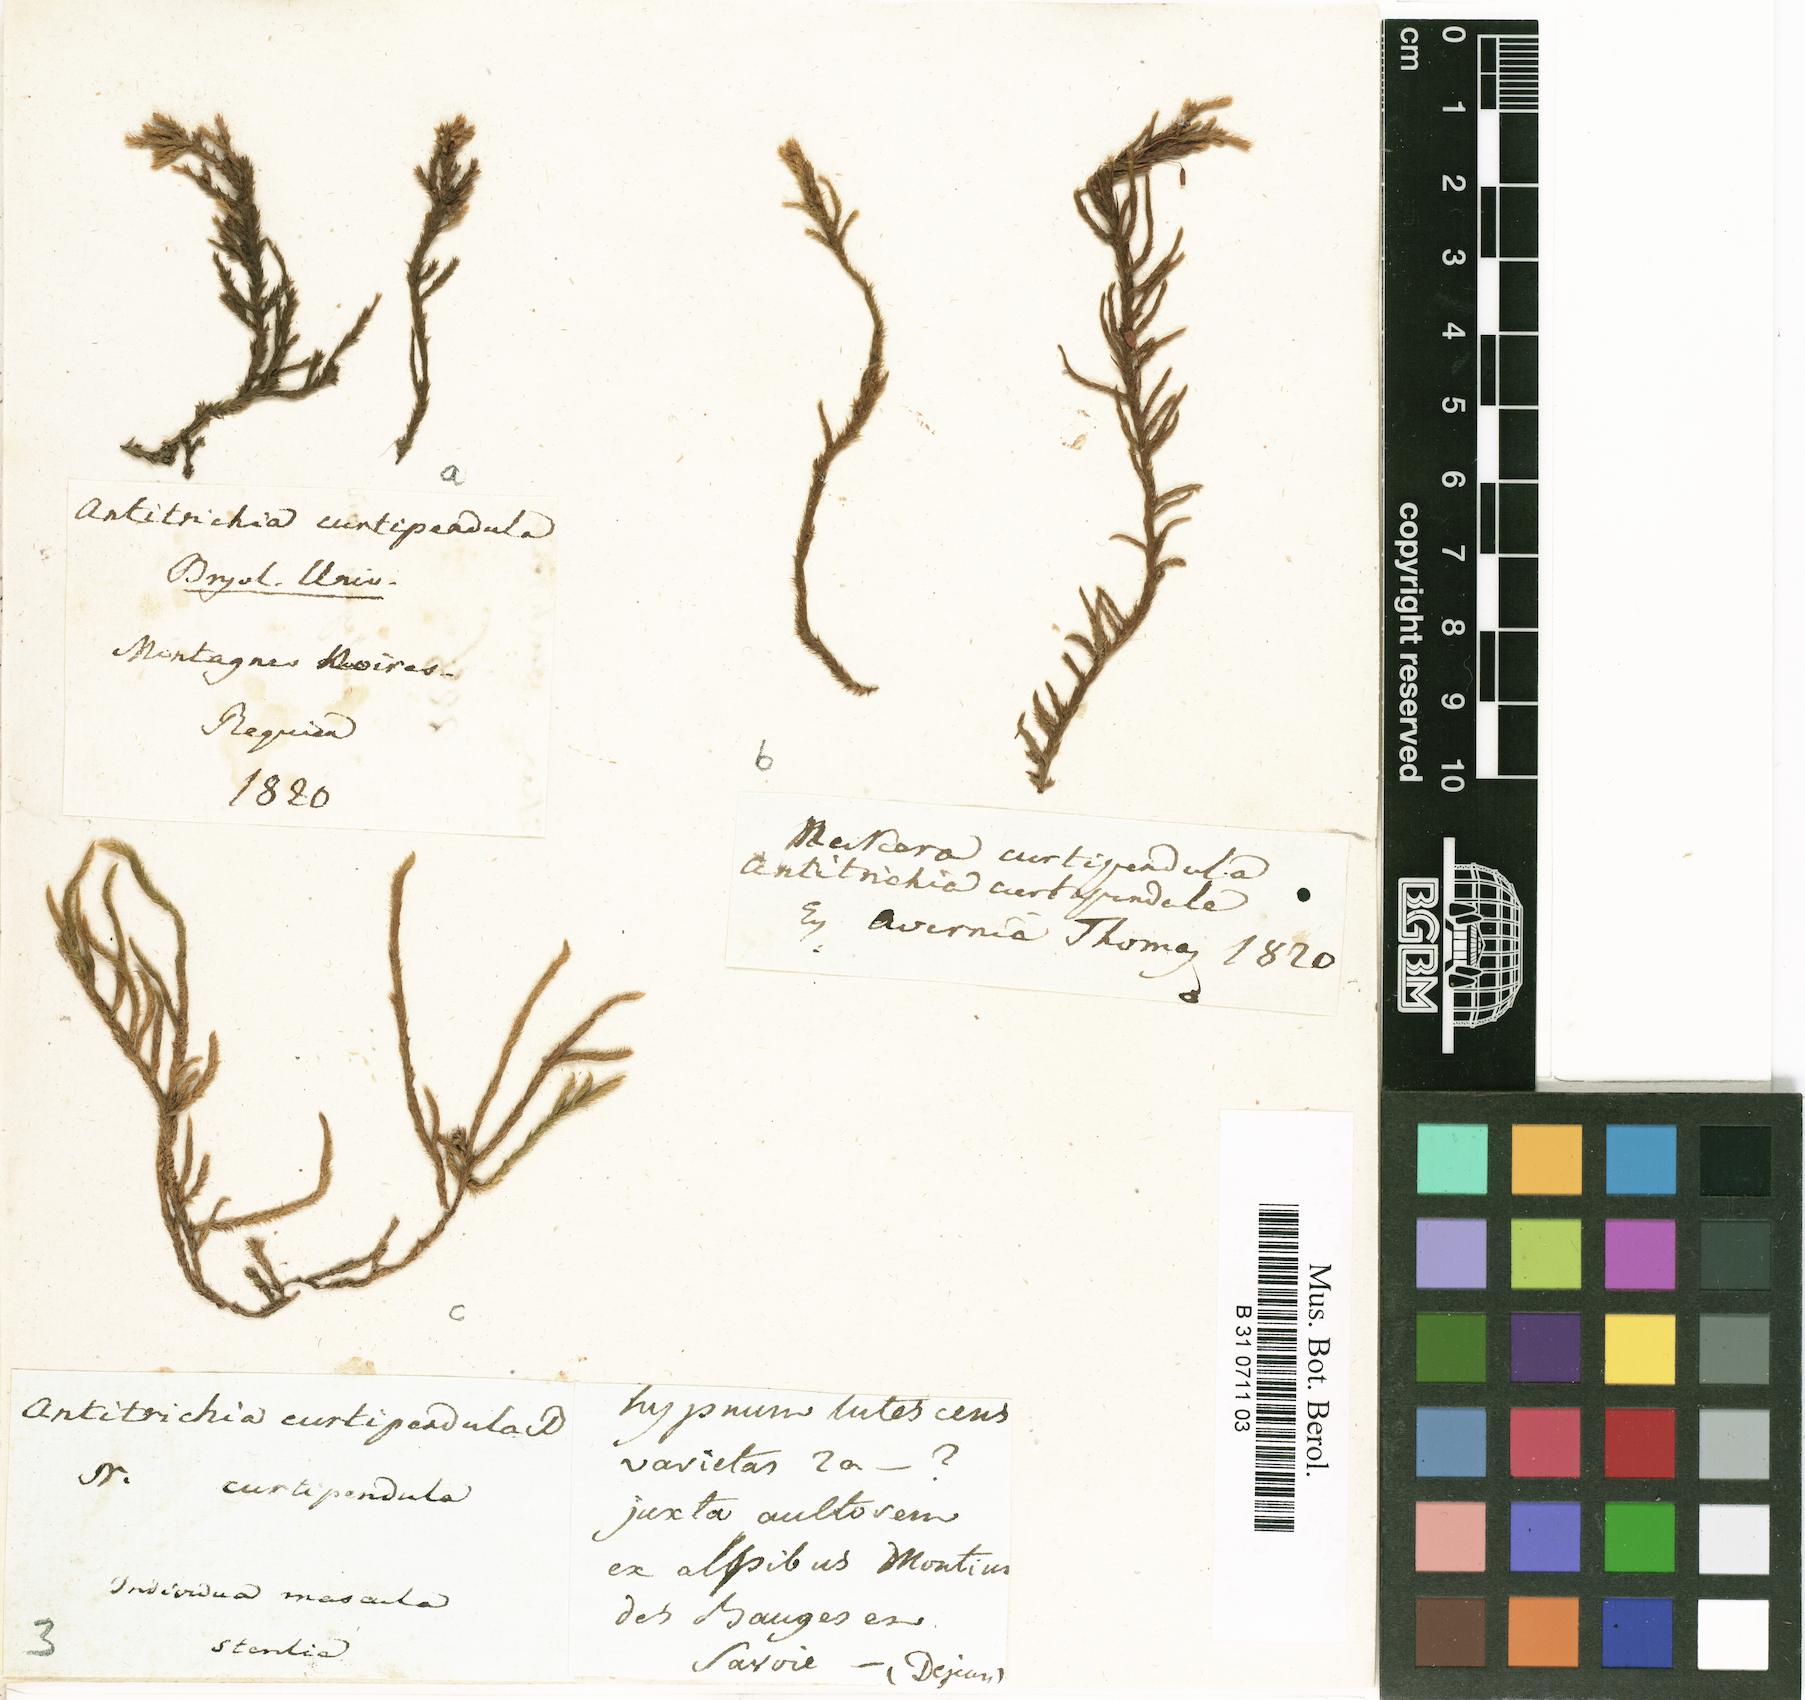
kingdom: Plantae
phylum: Bryophyta
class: Bryopsida
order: Hypnales
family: Antitrichiaceae
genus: Antitrichia
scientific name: Antitrichia curtipendula
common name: Pendulous wing-moss
